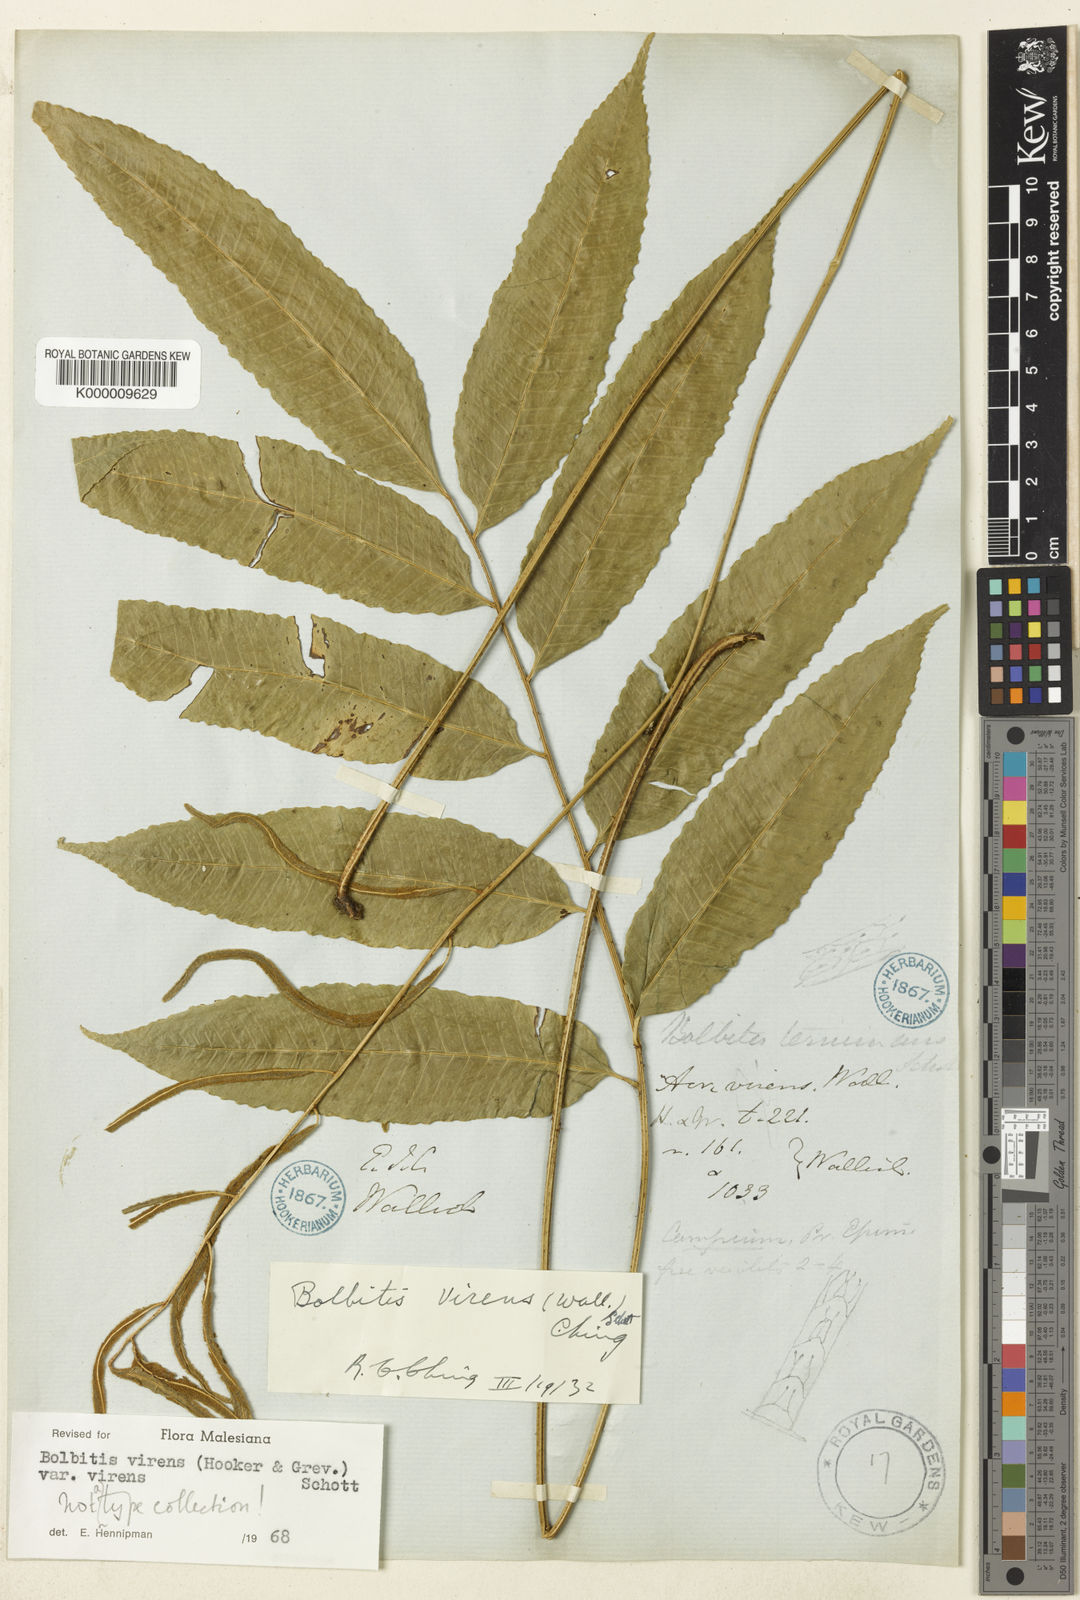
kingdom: Plantae
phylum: Tracheophyta
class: Polypodiopsida
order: Polypodiales
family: Dryopteridaceae
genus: Bolbitis
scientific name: Bolbitis virens
